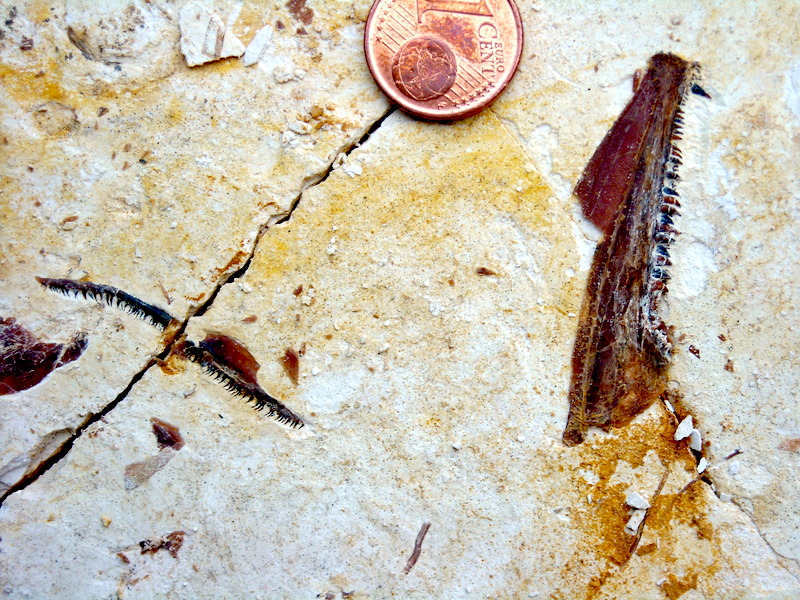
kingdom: Animalia
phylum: Chordata
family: Aspidorhynchidae
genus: Aspidorhynchus
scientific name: Aspidorhynchus sanzenbacheri
